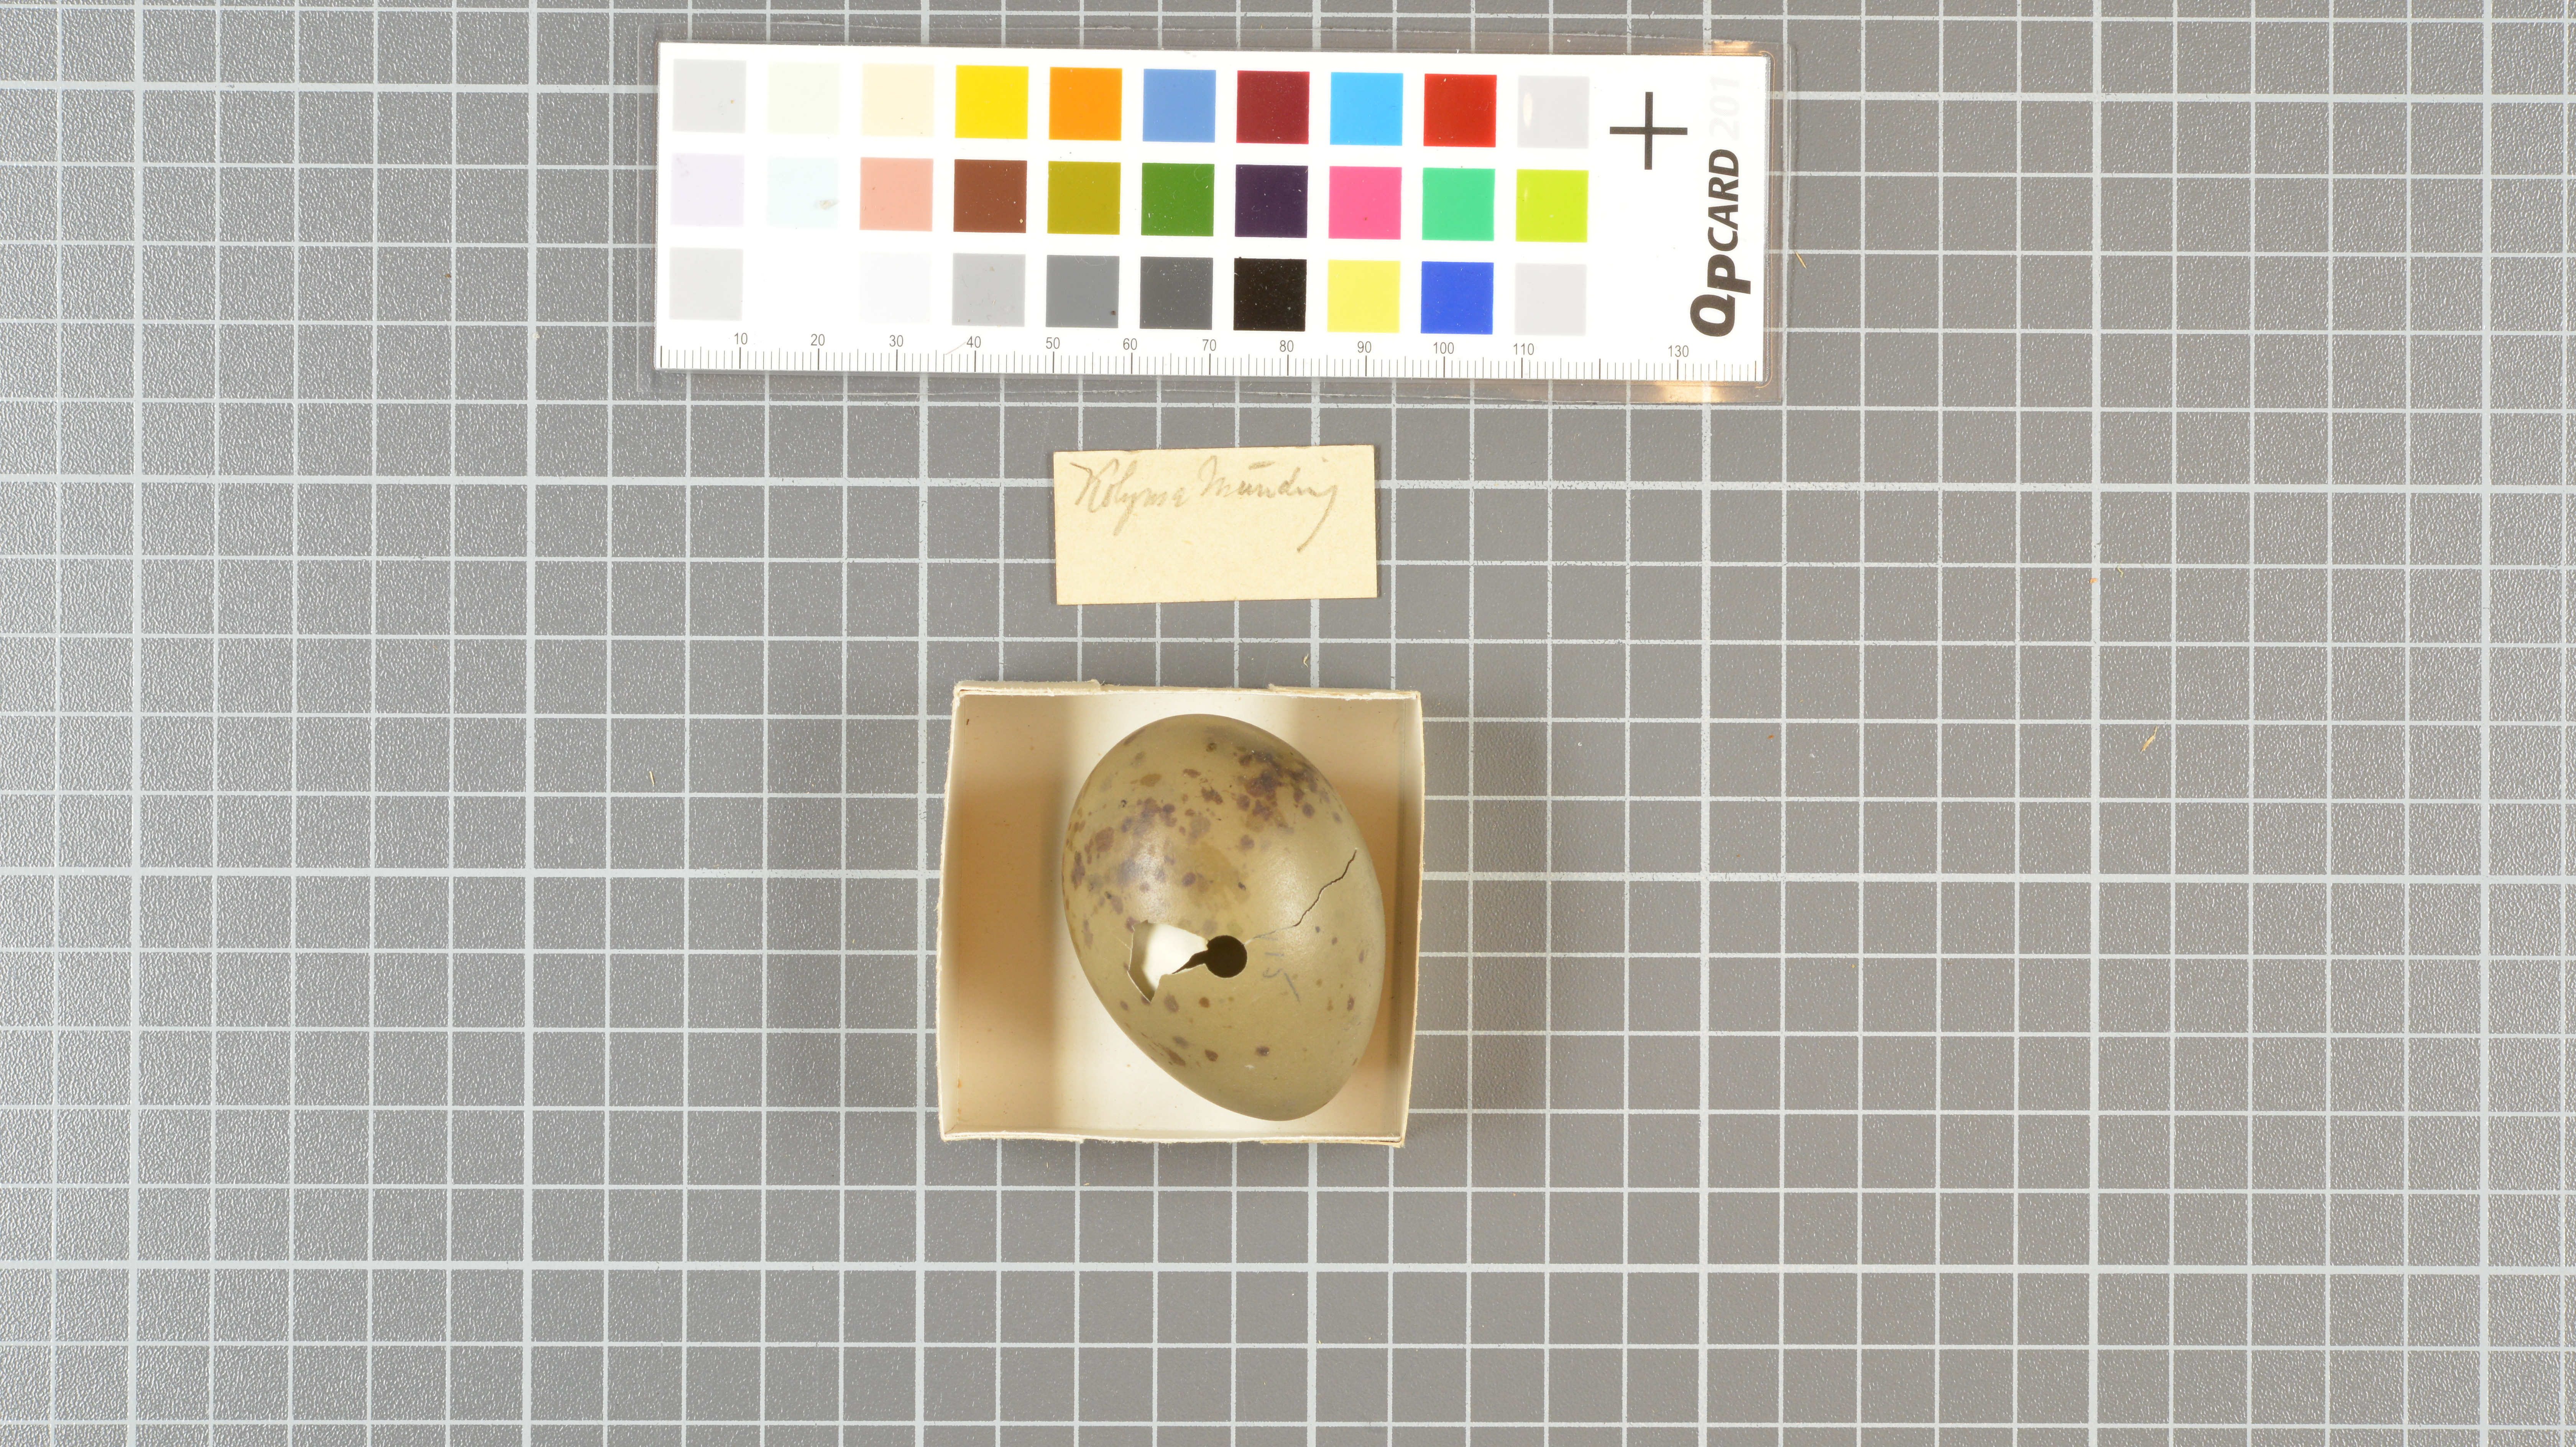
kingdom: Animalia
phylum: Chordata
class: Aves
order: Charadriiformes
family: Stercorariidae
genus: Stercorarius
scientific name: Stercorarius longicaudus
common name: Long-tailed jaeger
